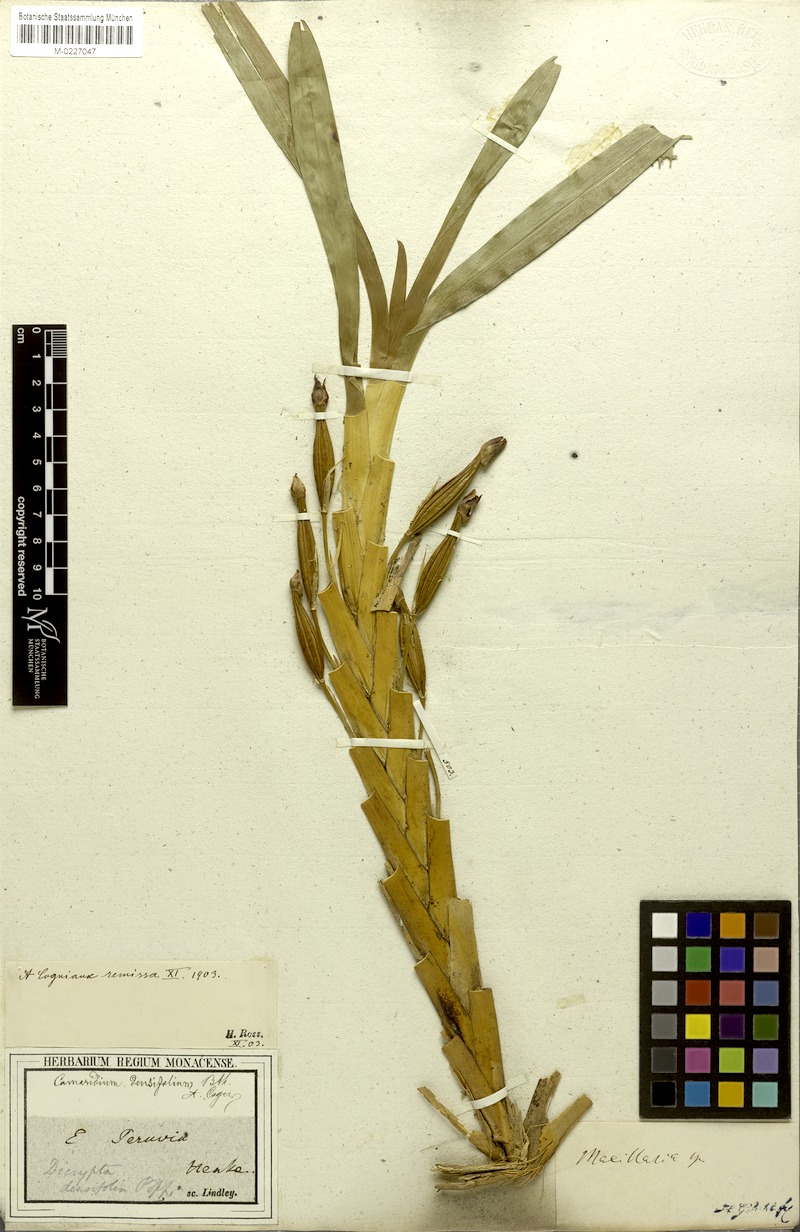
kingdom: Plantae
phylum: Tracheophyta
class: Liliopsida
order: Asparagales
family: Orchidaceae
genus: Maxillaria
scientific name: Maxillaria densifolia
